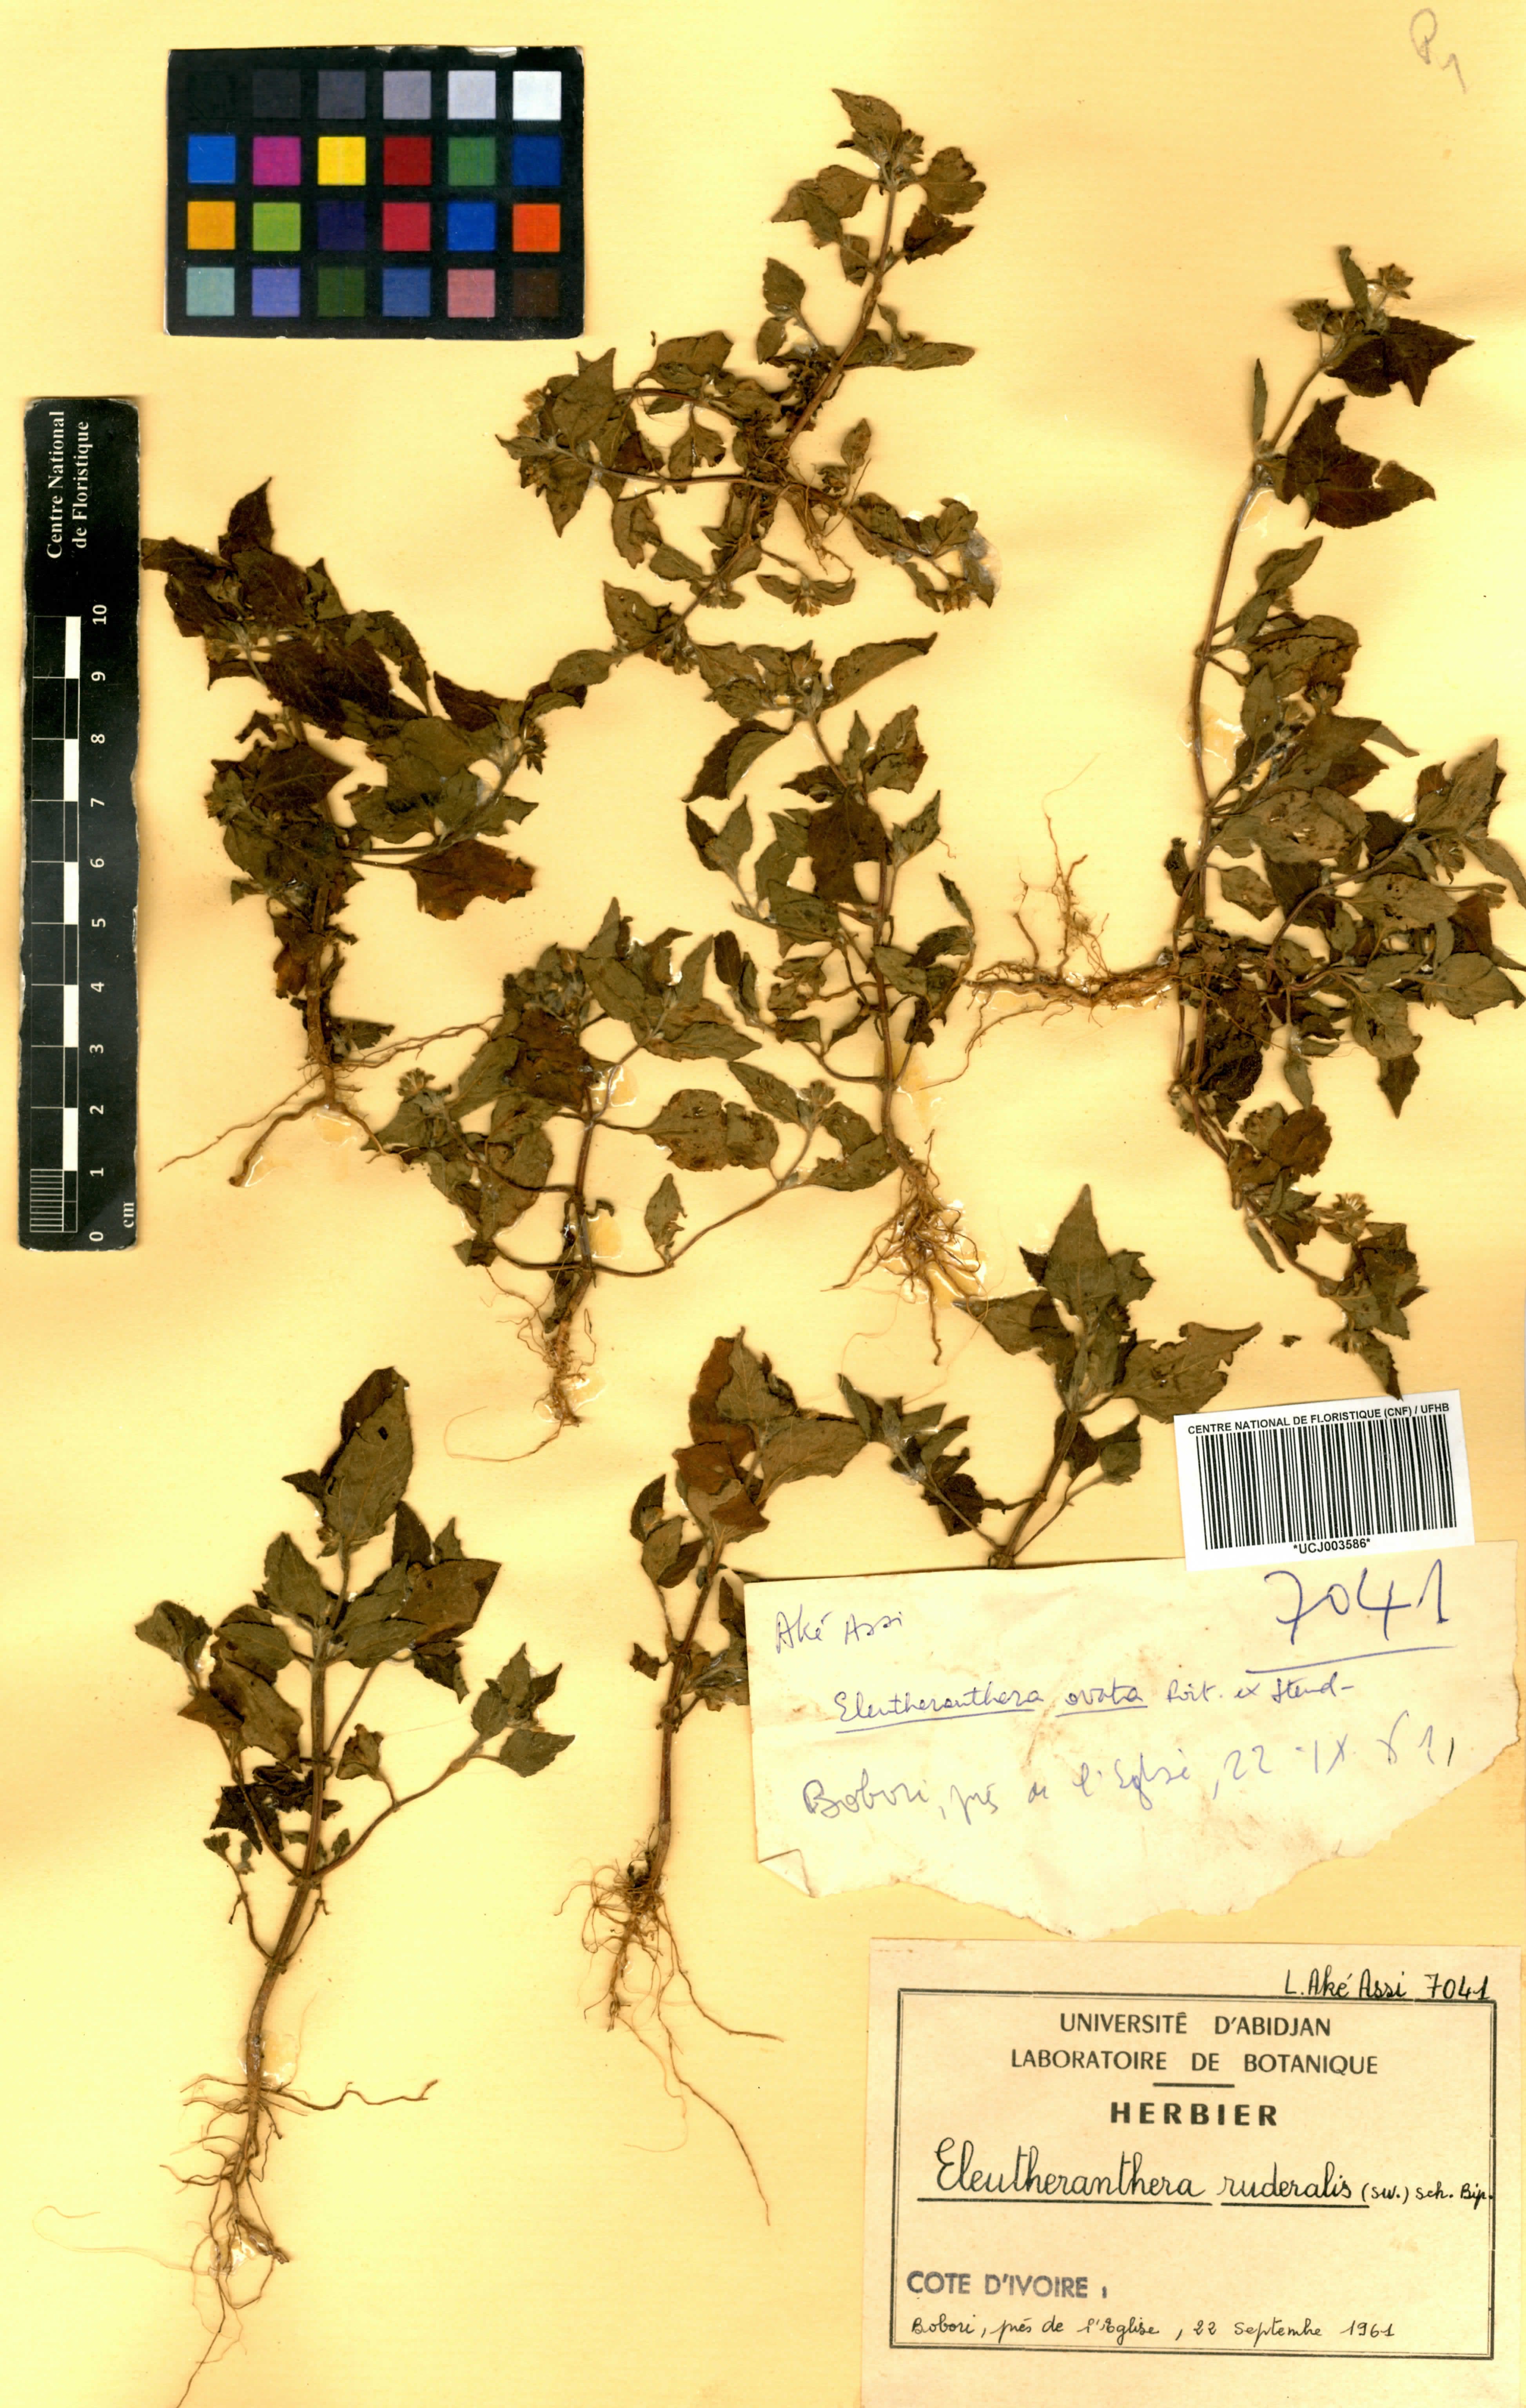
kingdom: Plantae
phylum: Tracheophyta
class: Magnoliopsida
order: Asterales
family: Asteraceae
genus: Eleutheranthera
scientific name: Eleutheranthera ruderalis
